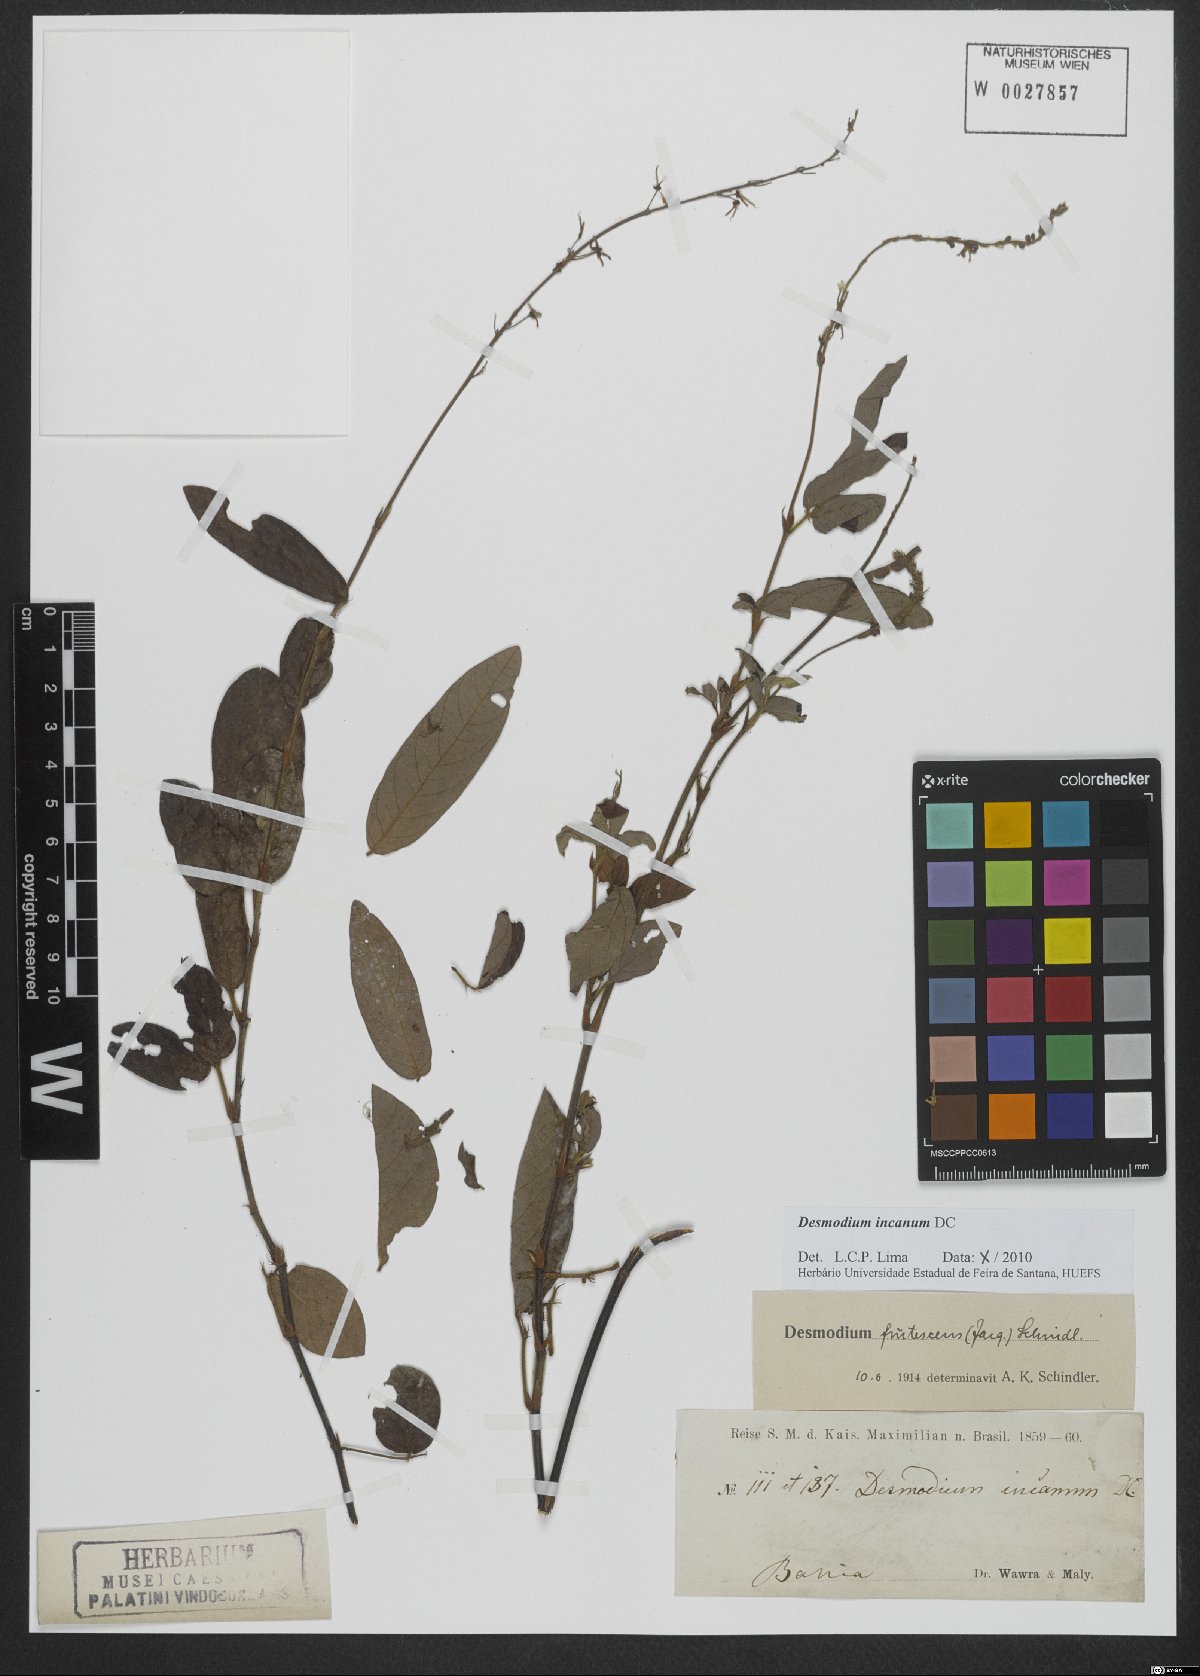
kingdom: Plantae
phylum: Tracheophyta
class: Magnoliopsida
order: Fabales
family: Fabaceae
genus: Desmodium
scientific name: Desmodium incanum
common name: Tickclover
